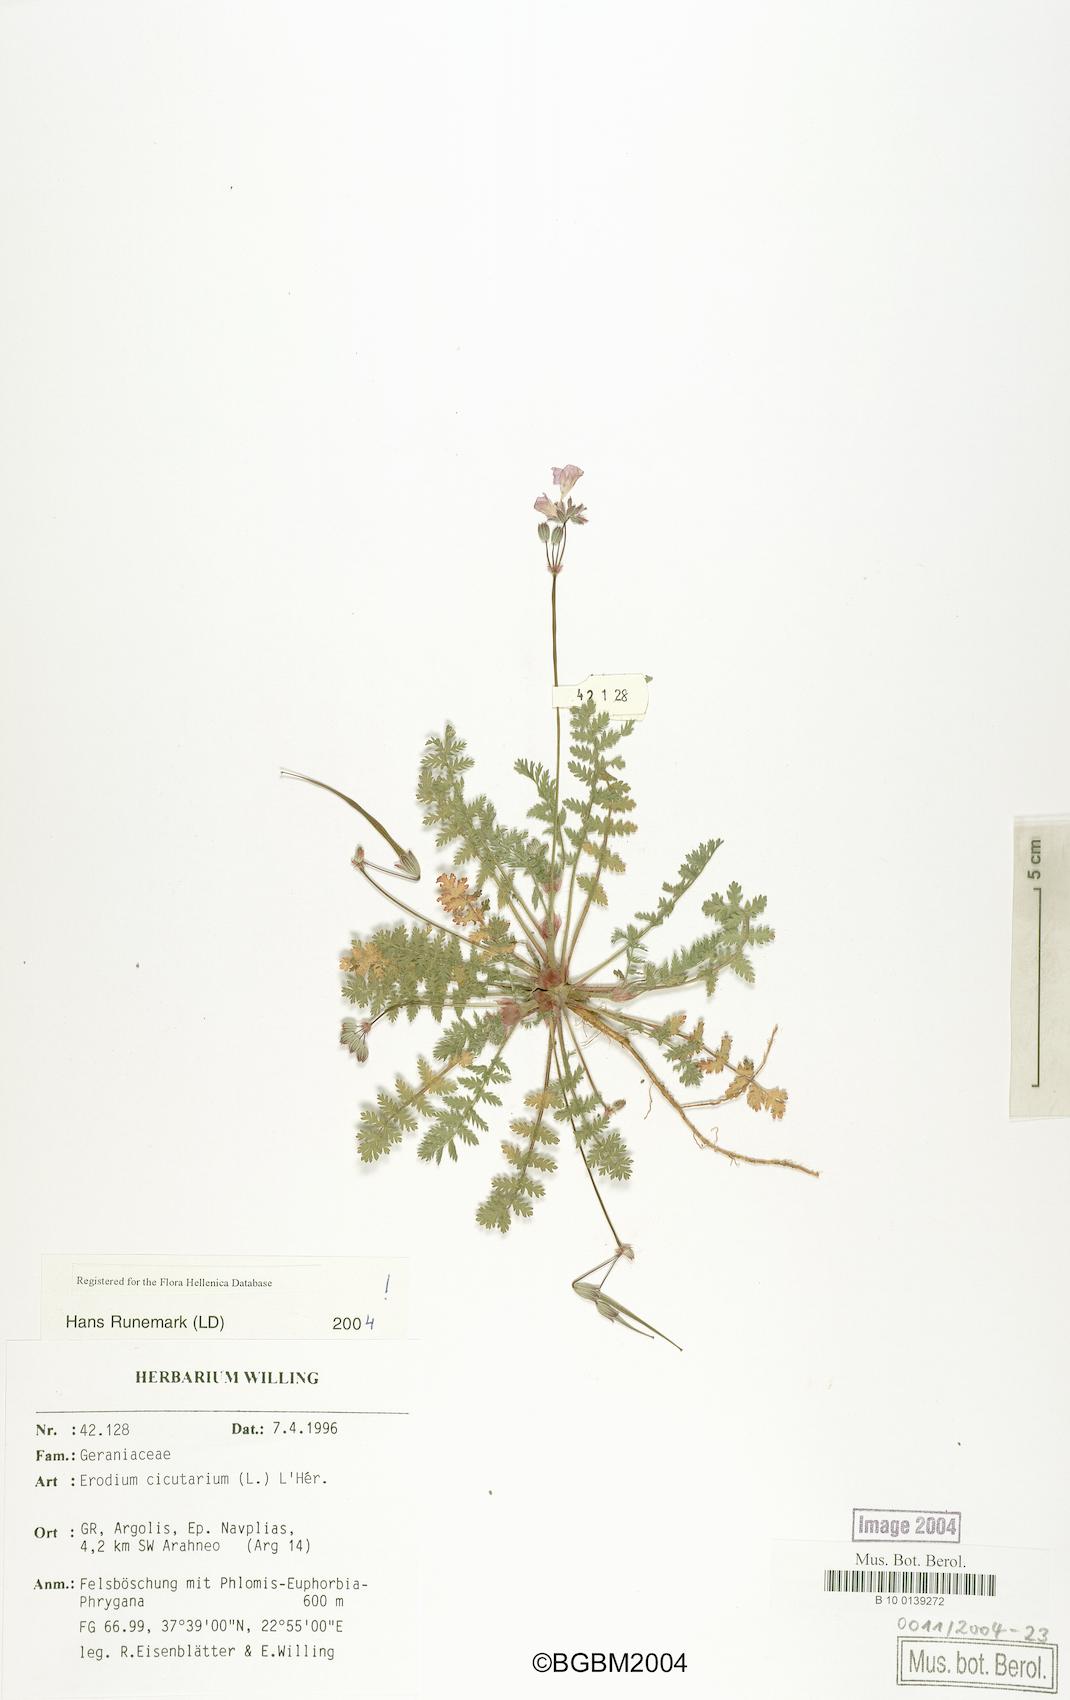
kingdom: Plantae
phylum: Tracheophyta
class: Magnoliopsida
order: Geraniales
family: Geraniaceae
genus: Erodium
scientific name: Erodium cicutarium
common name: Common stork's-bill
